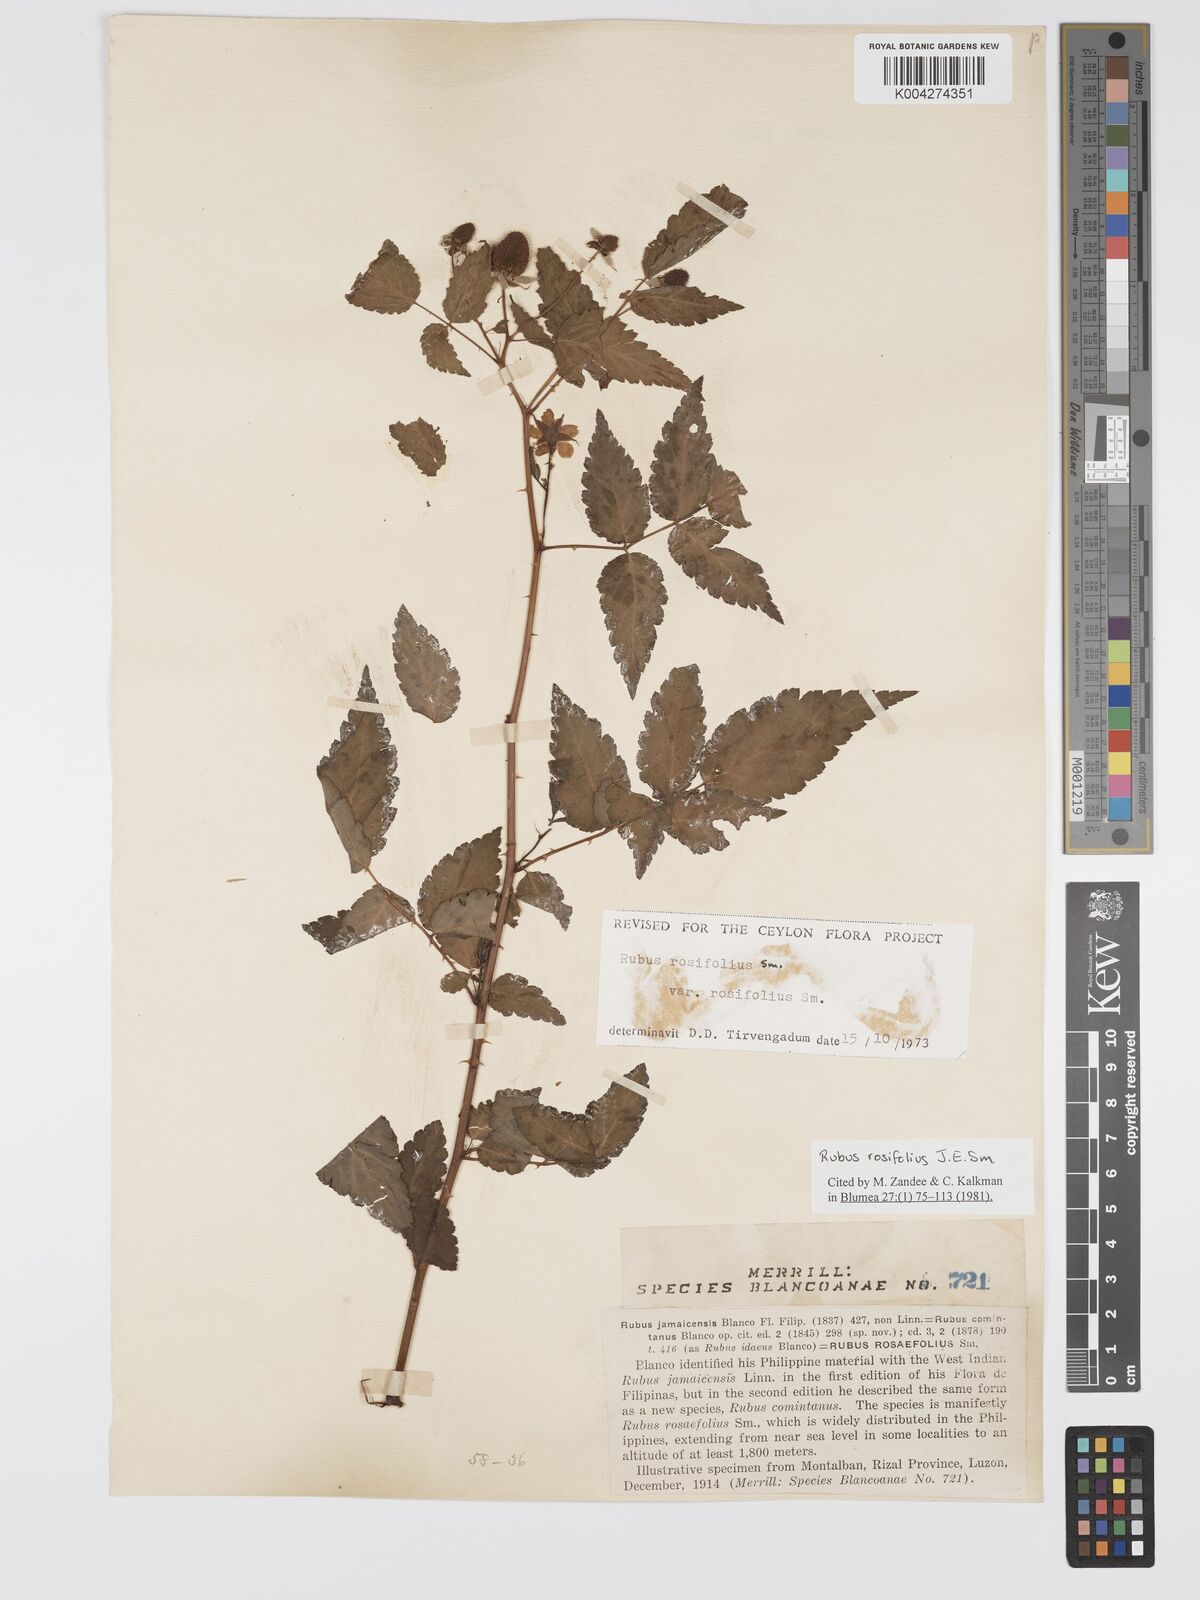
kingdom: Plantae
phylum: Tracheophyta
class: Magnoliopsida
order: Rosales
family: Rosaceae
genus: Rubus
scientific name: Rubus
